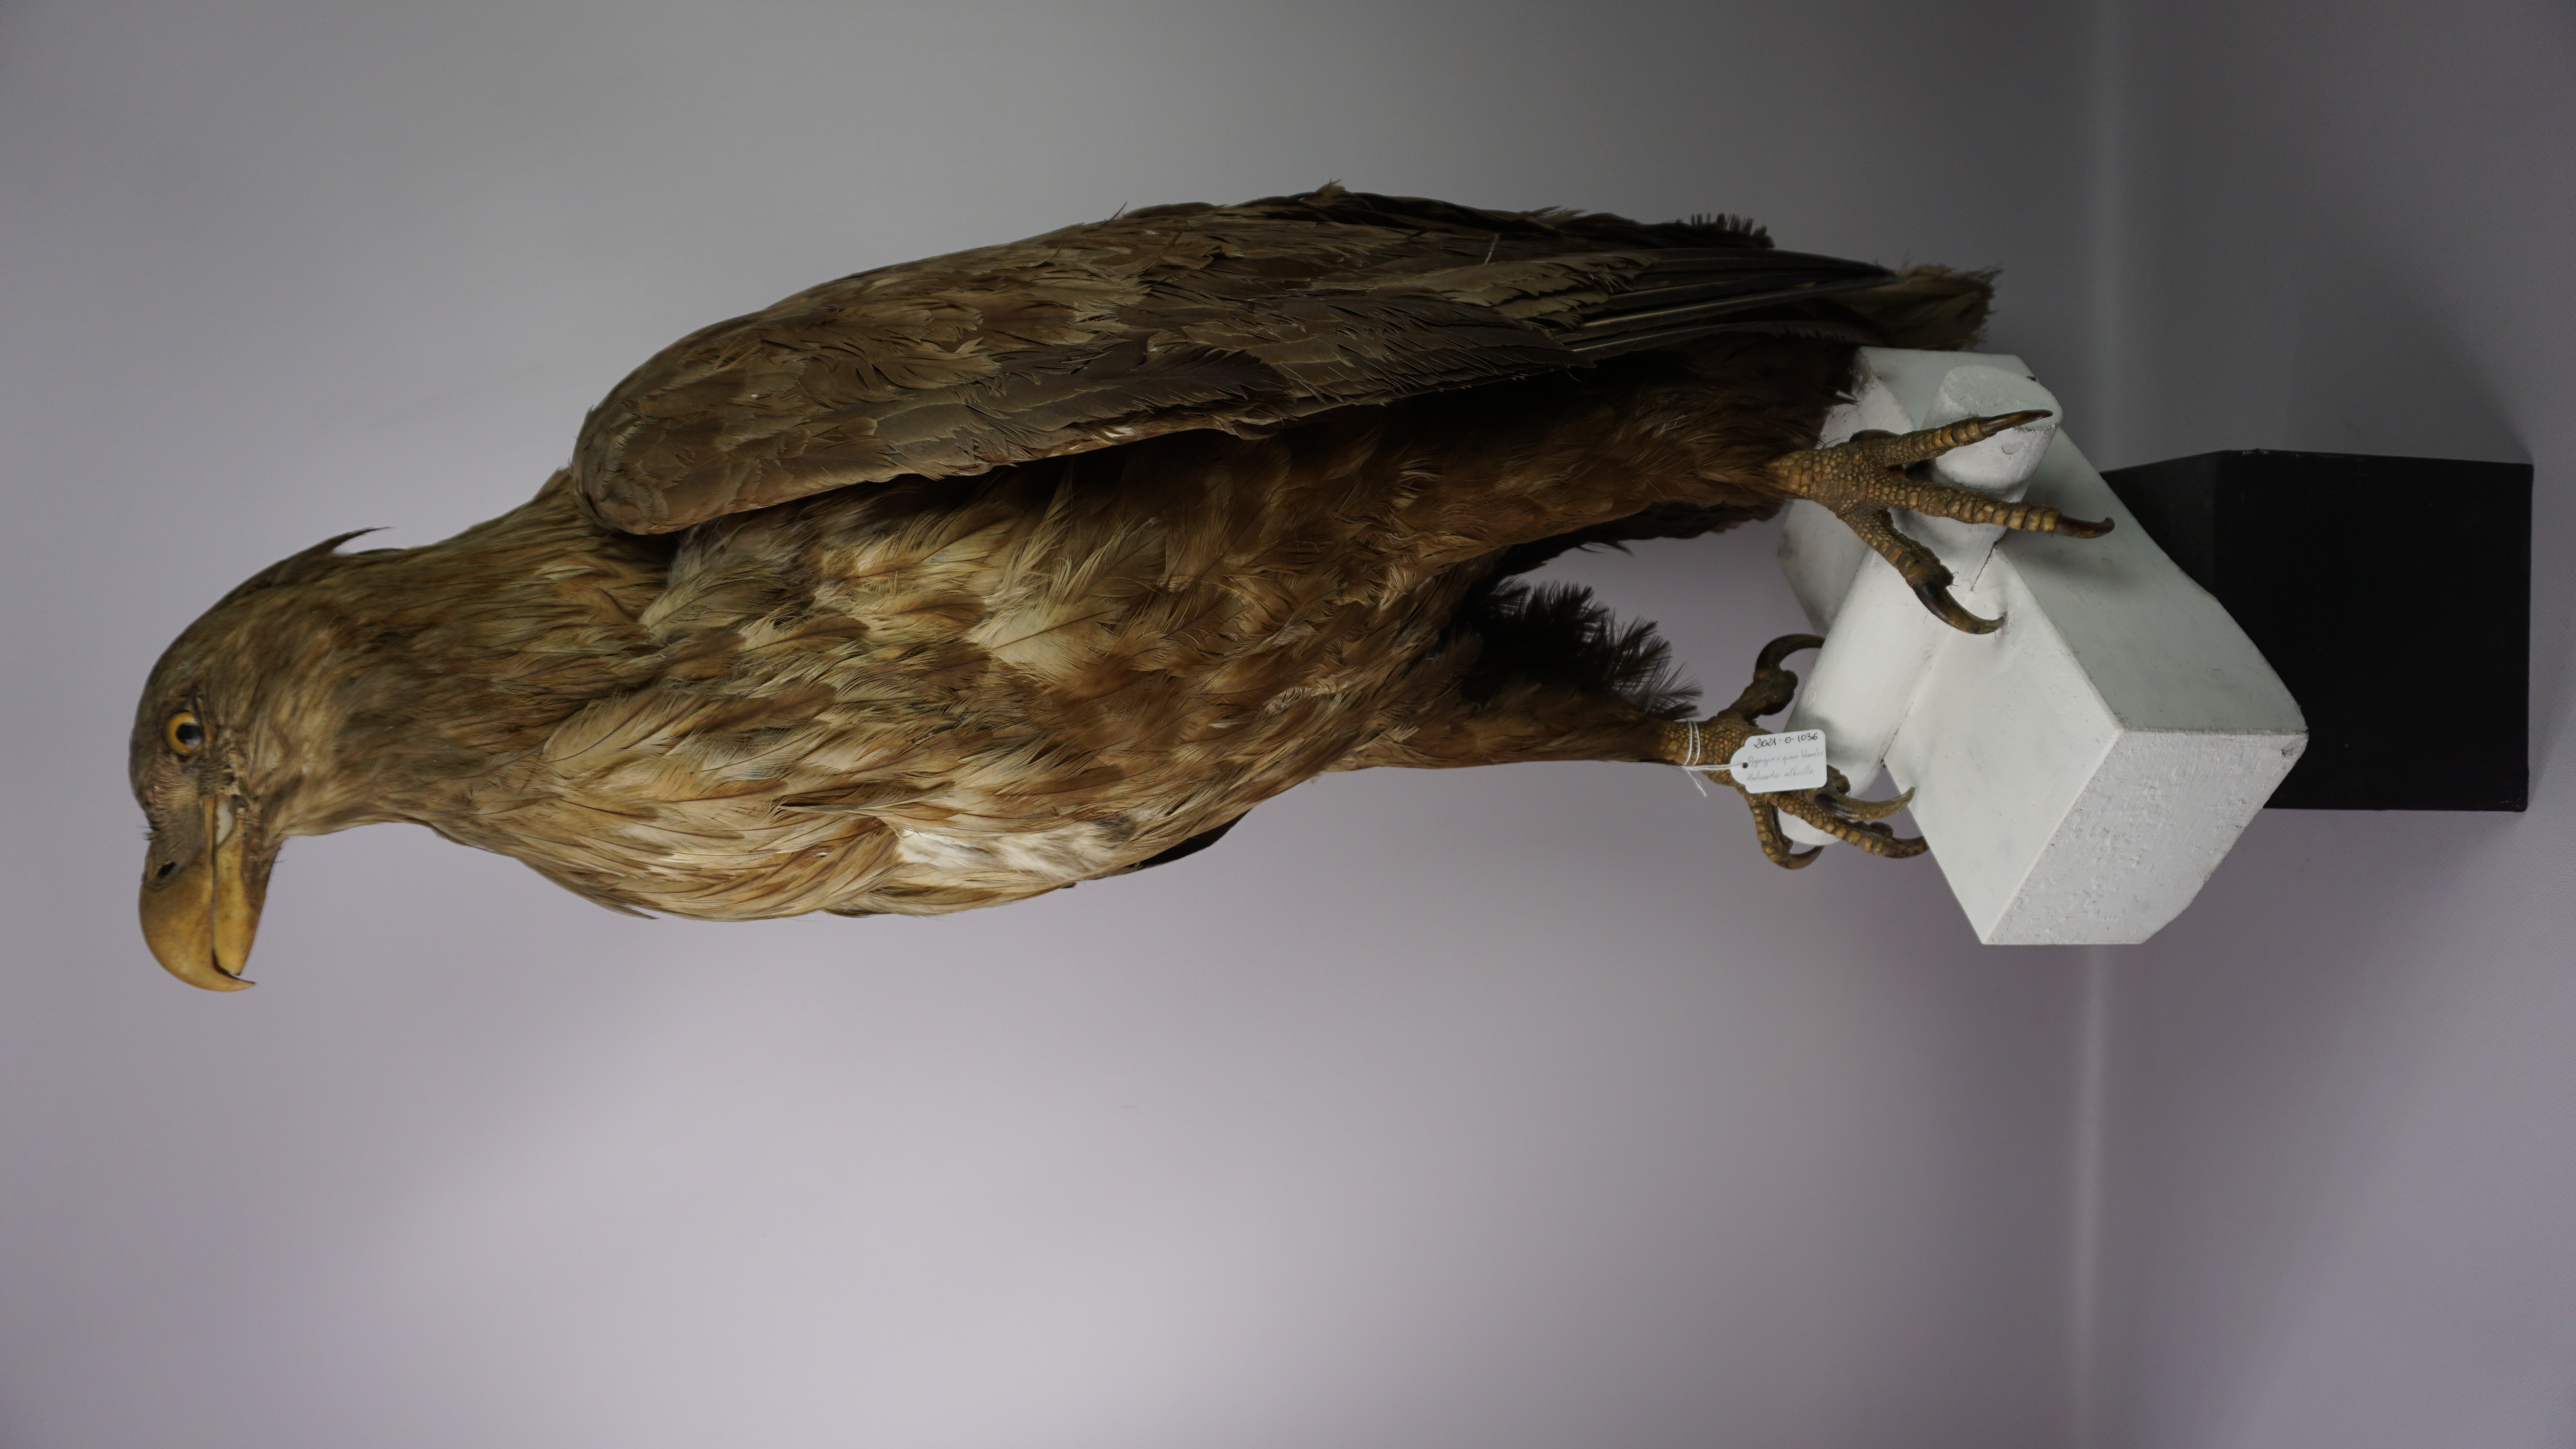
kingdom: Animalia
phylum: Chordata
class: Aves
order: Accipitriformes
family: Accipitridae
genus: Haliaeetus
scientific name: Haliaeetus albicilla
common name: White-tailed eagle
